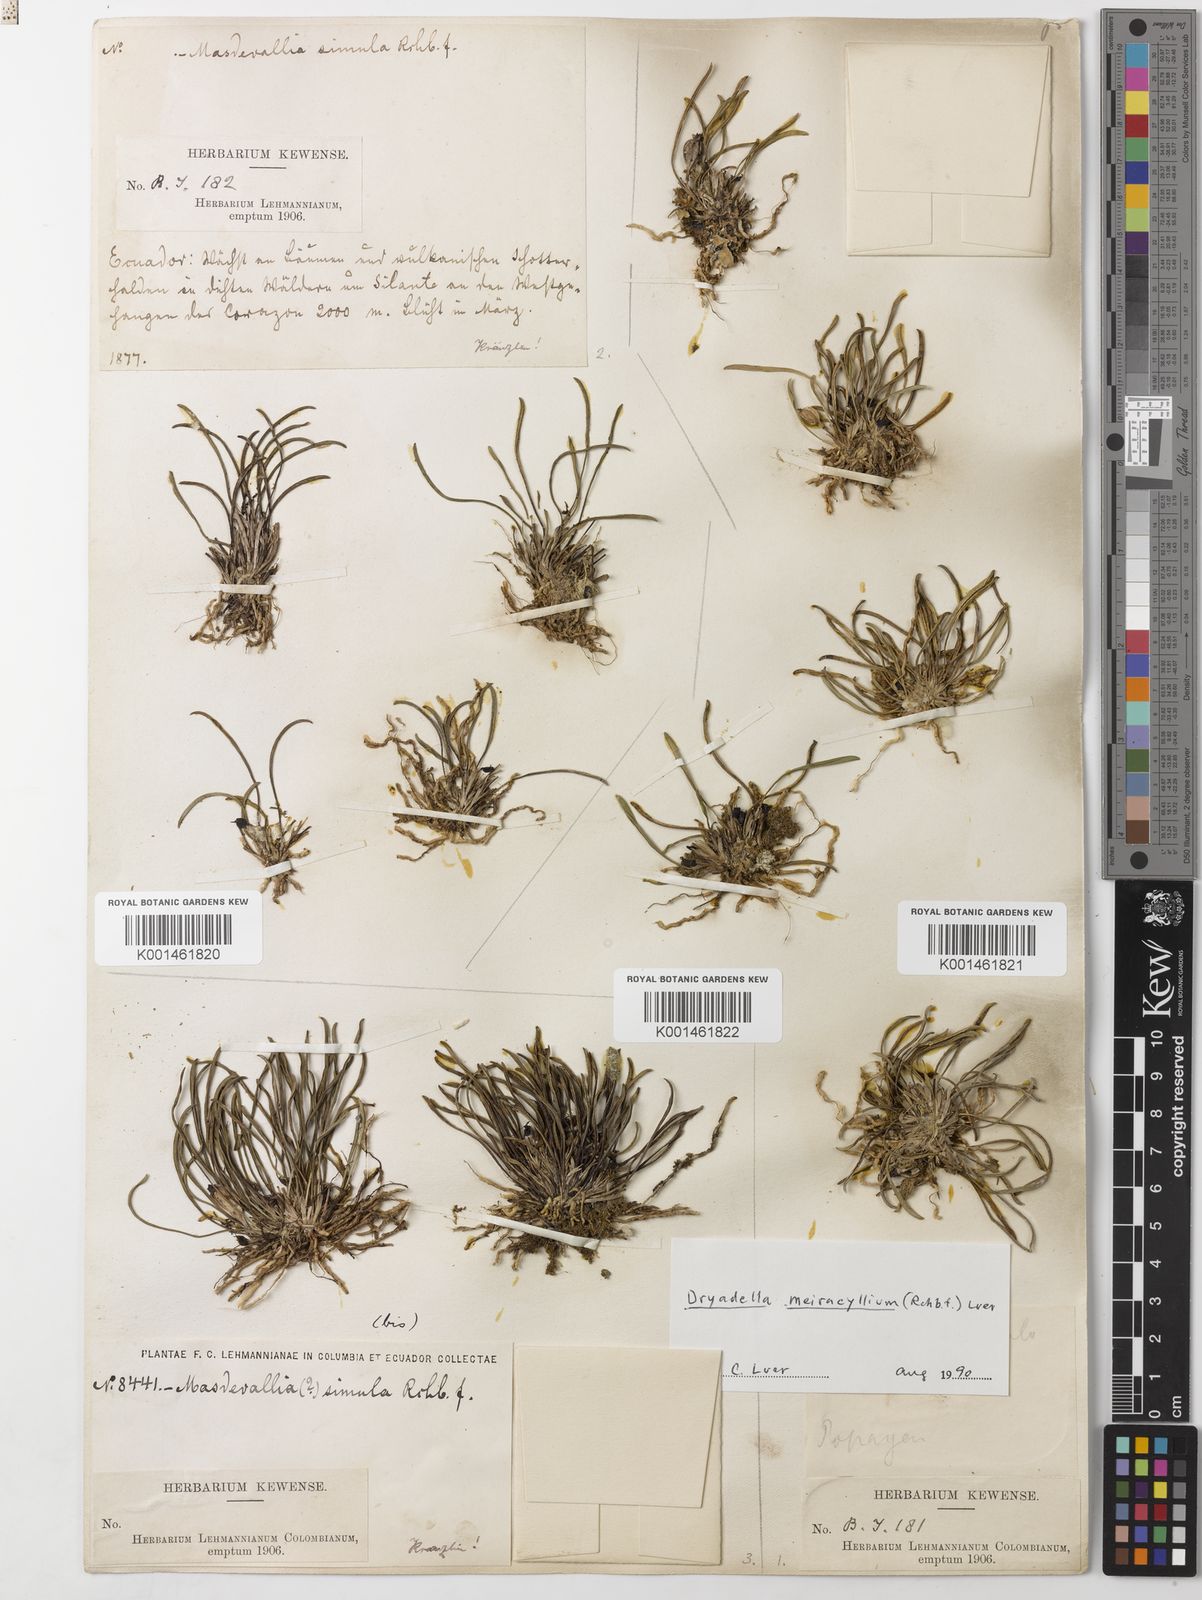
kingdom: Plantae
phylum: Tracheophyta
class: Liliopsida
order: Asparagales
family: Orchidaceae
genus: Dryadella
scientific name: Dryadella meiracyllium
